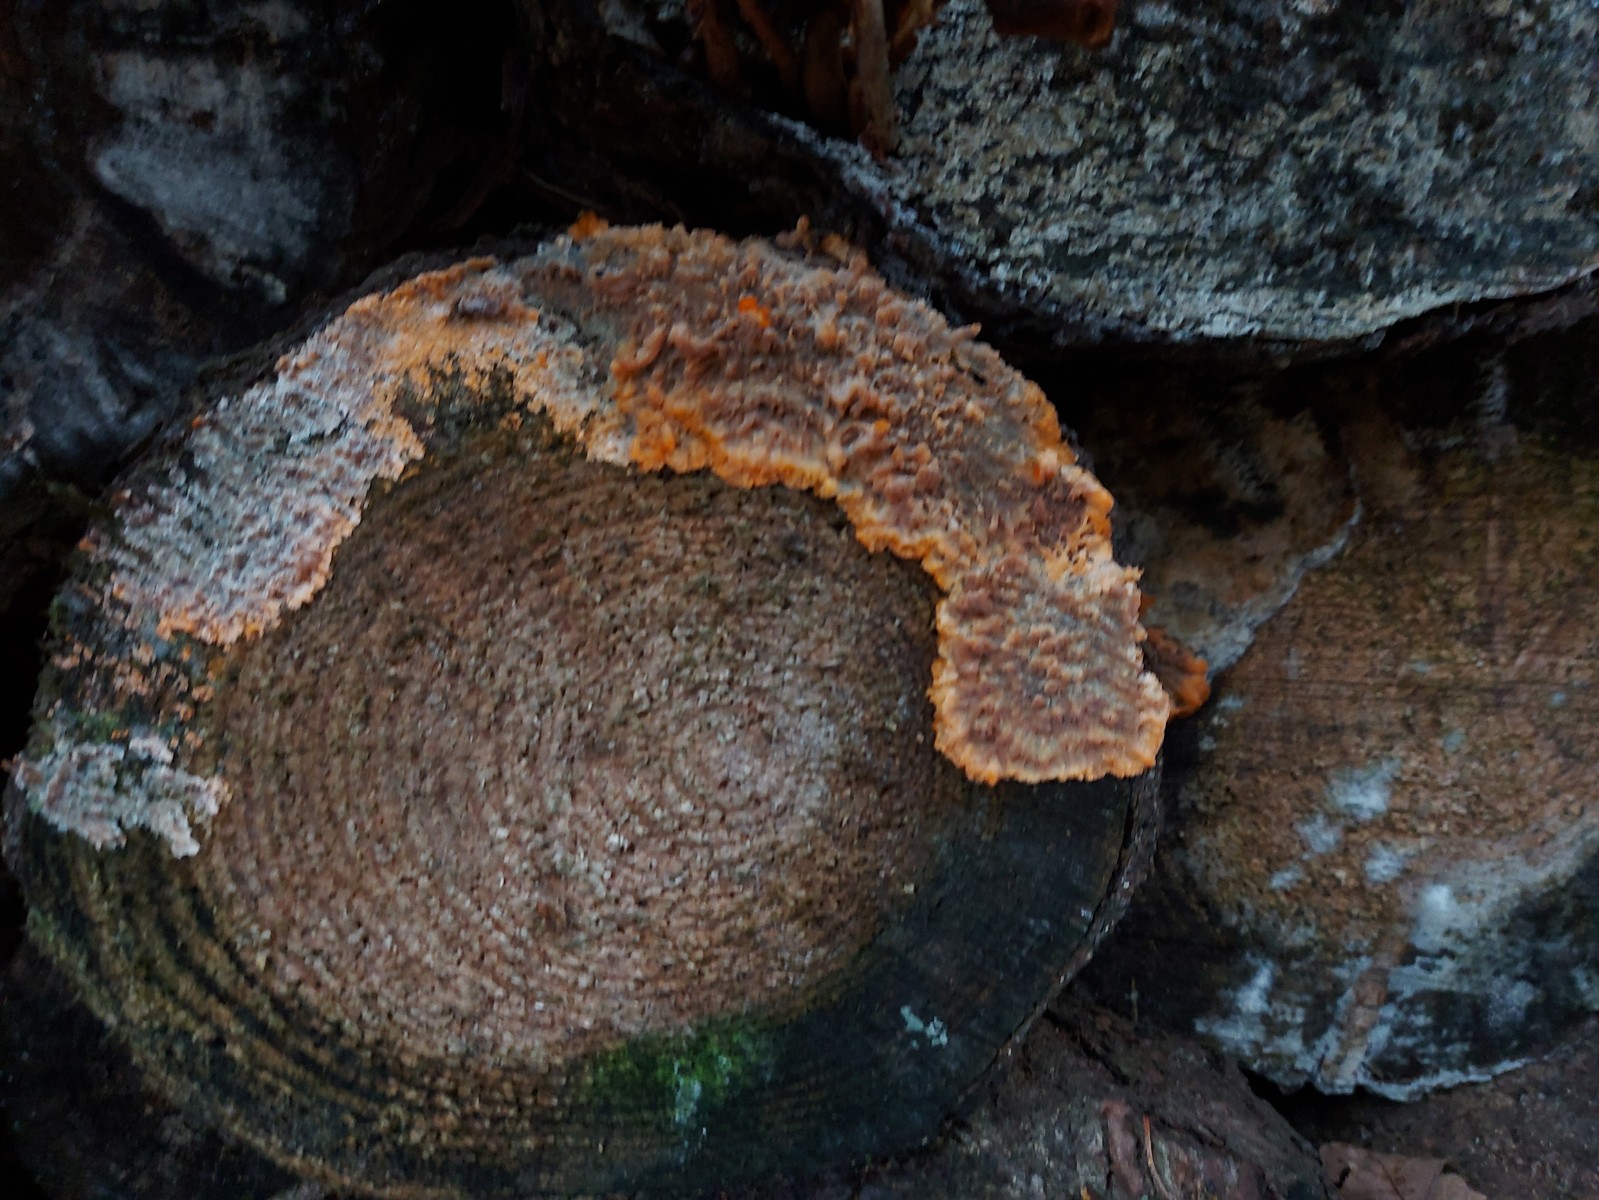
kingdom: Fungi
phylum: Basidiomycota
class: Agaricomycetes
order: Polyporales
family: Meruliaceae
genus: Phlebia
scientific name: Phlebia radiata
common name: stråle-åresvamp
